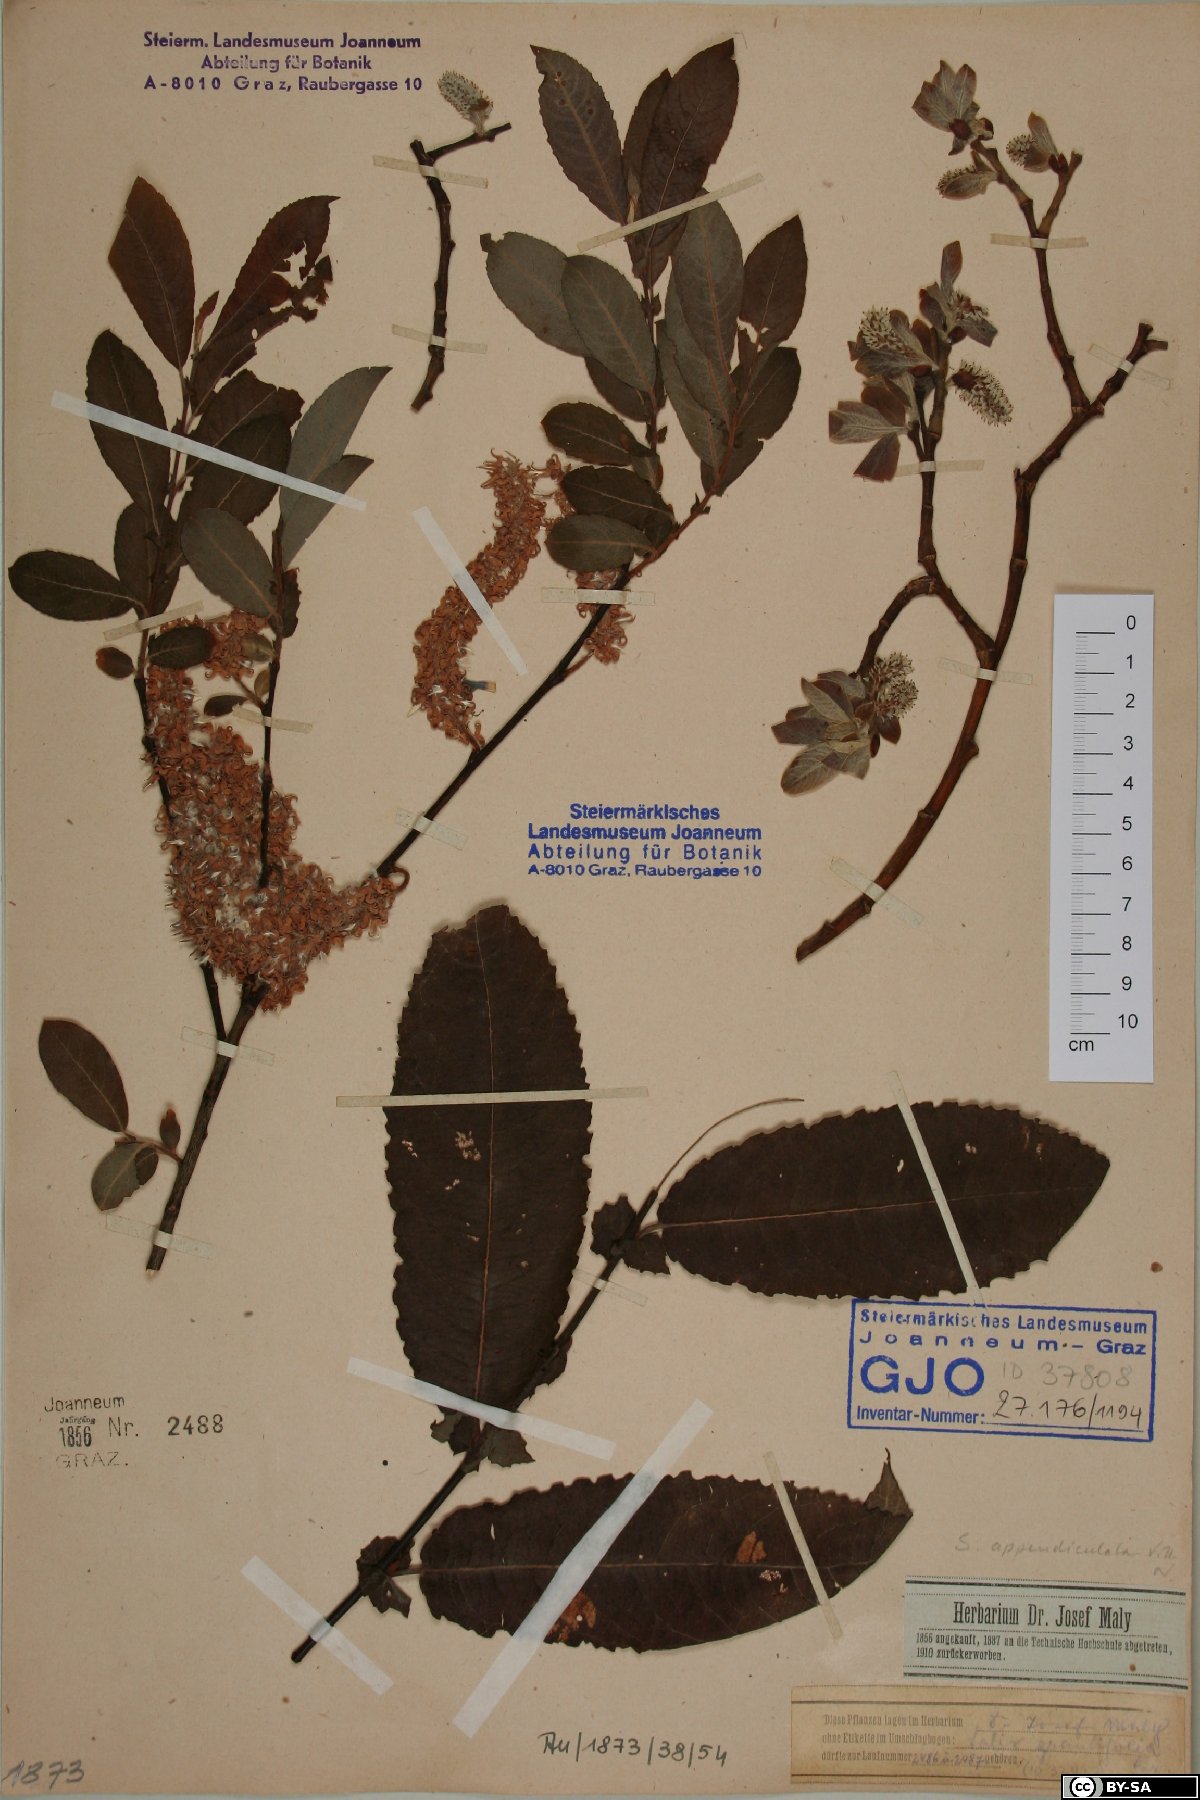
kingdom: Plantae
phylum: Tracheophyta
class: Magnoliopsida
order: Malpighiales
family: Salicaceae
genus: Salix
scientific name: Salix appendiculata
